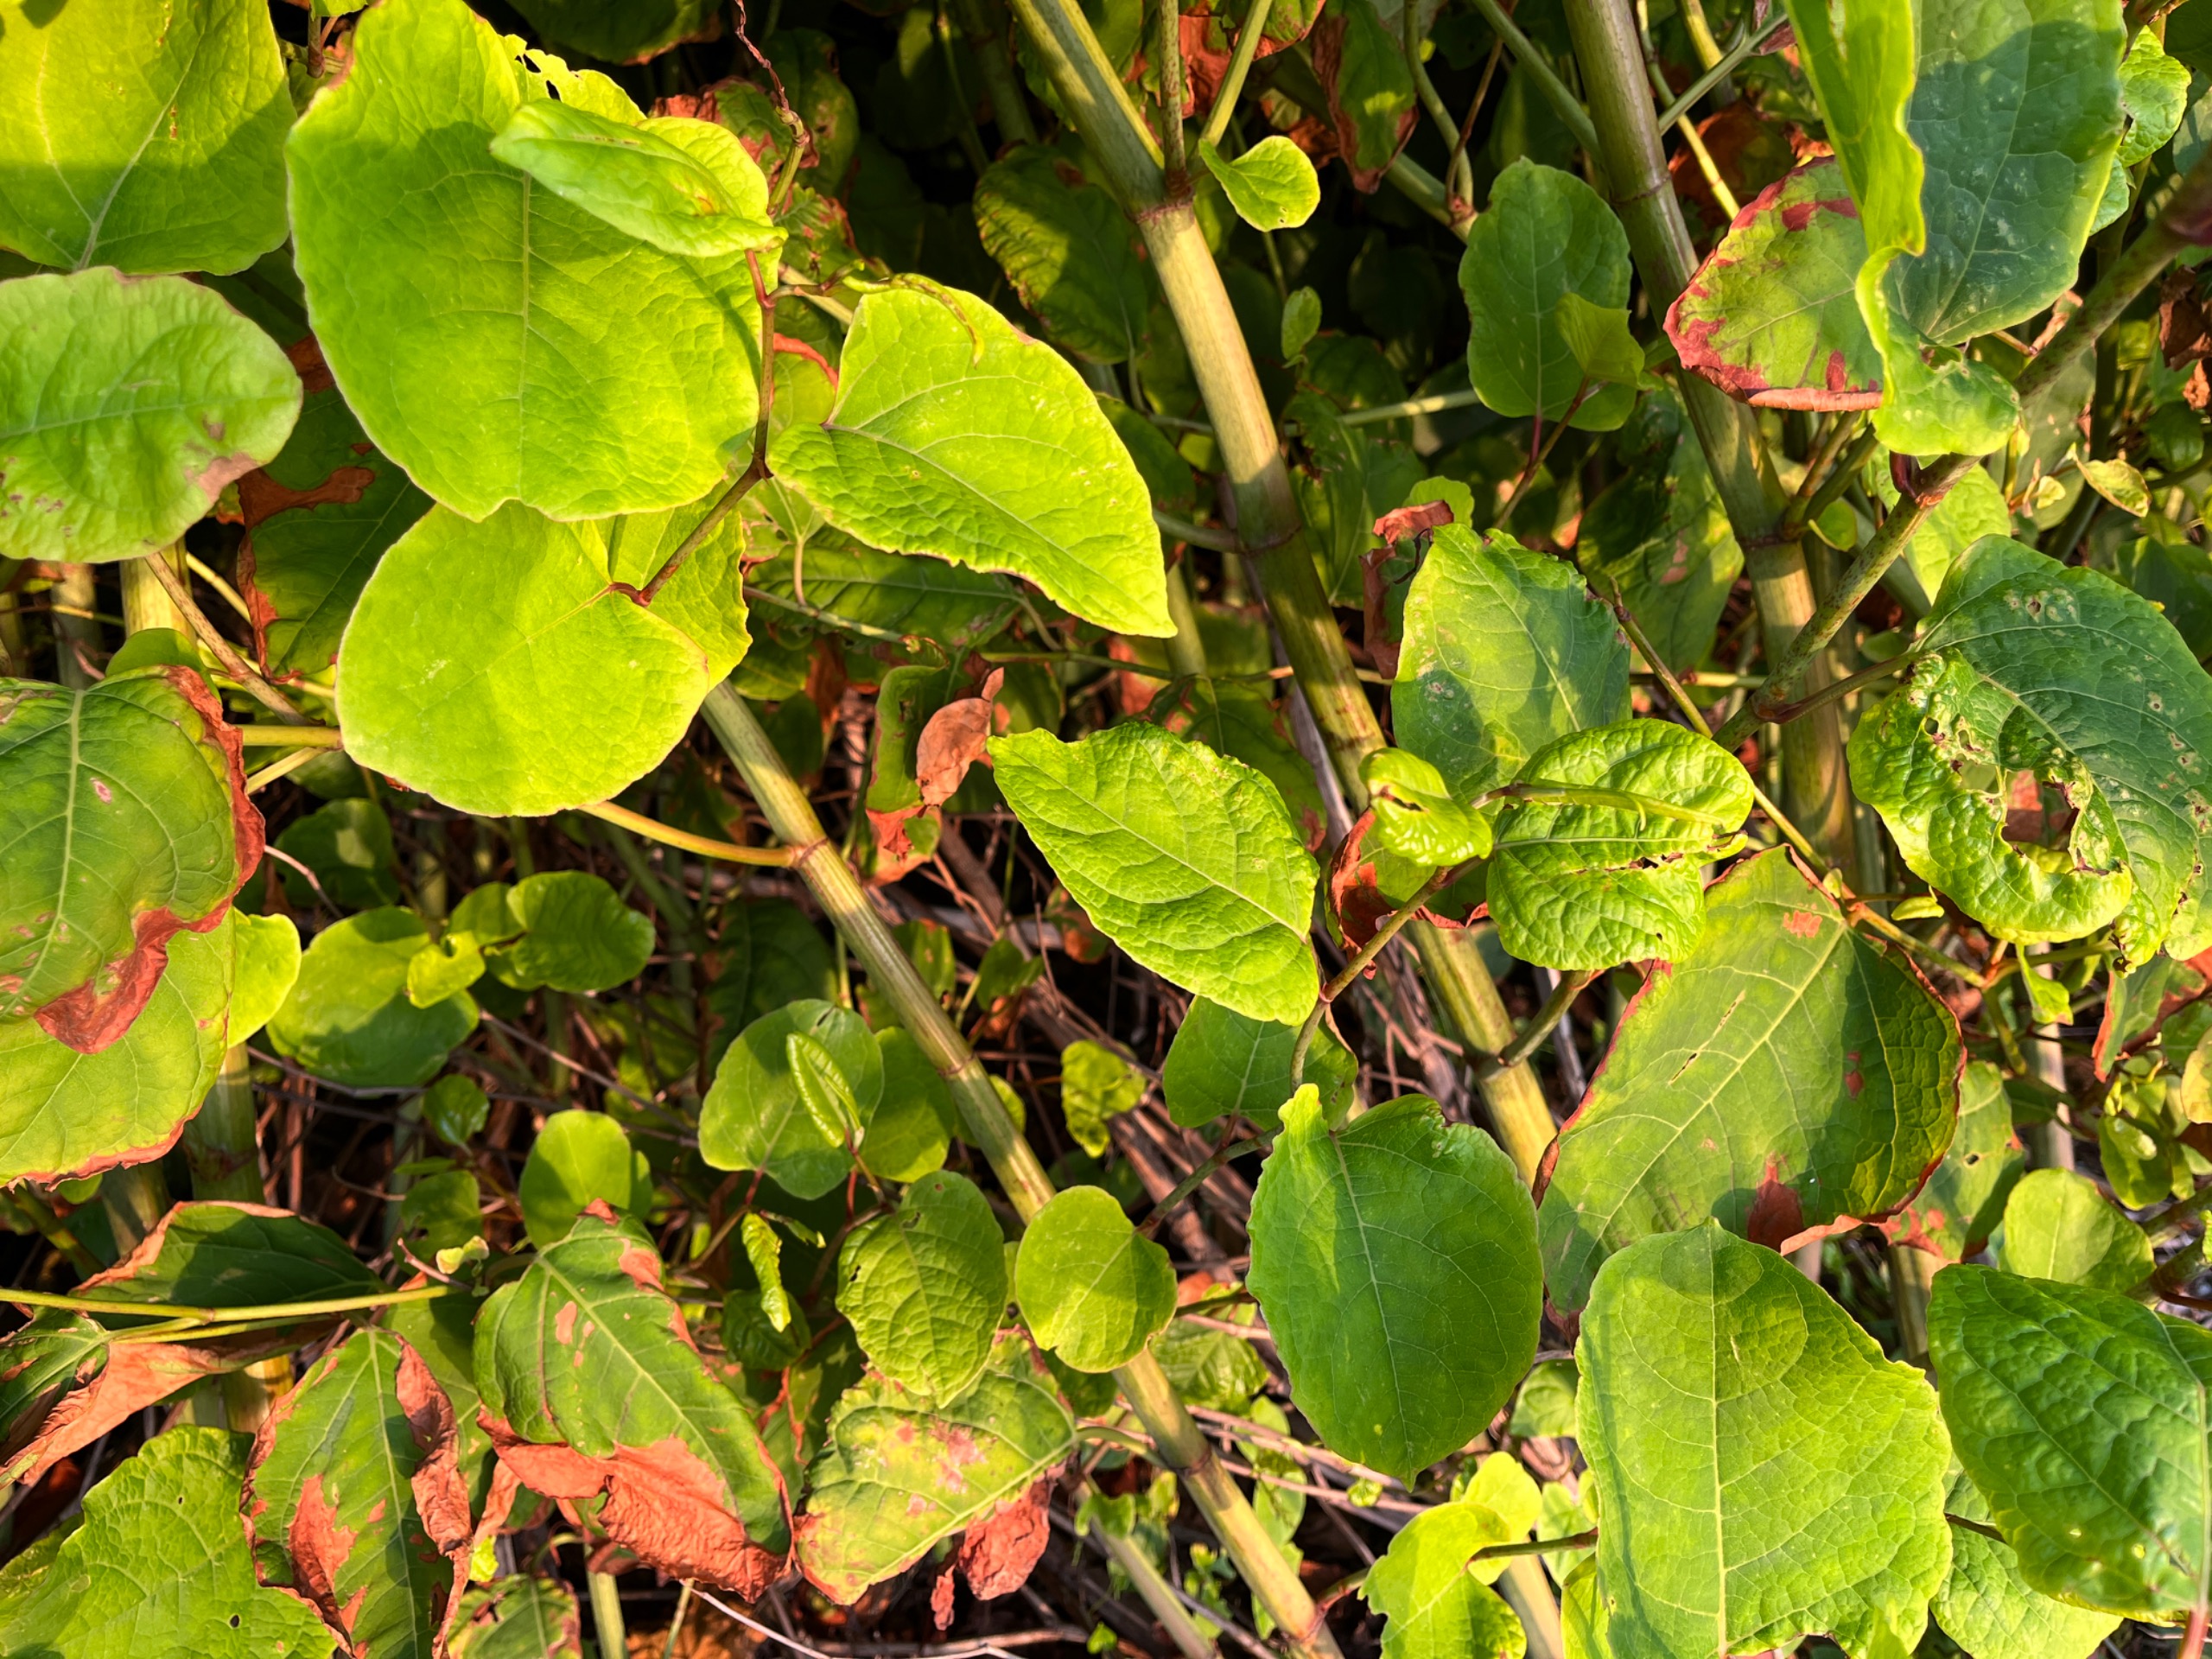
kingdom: Plantae
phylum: Tracheophyta
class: Magnoliopsida
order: Caryophyllales
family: Polygonaceae
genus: Reynoutria
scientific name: Reynoutria japonica
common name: Japan-pileurt
